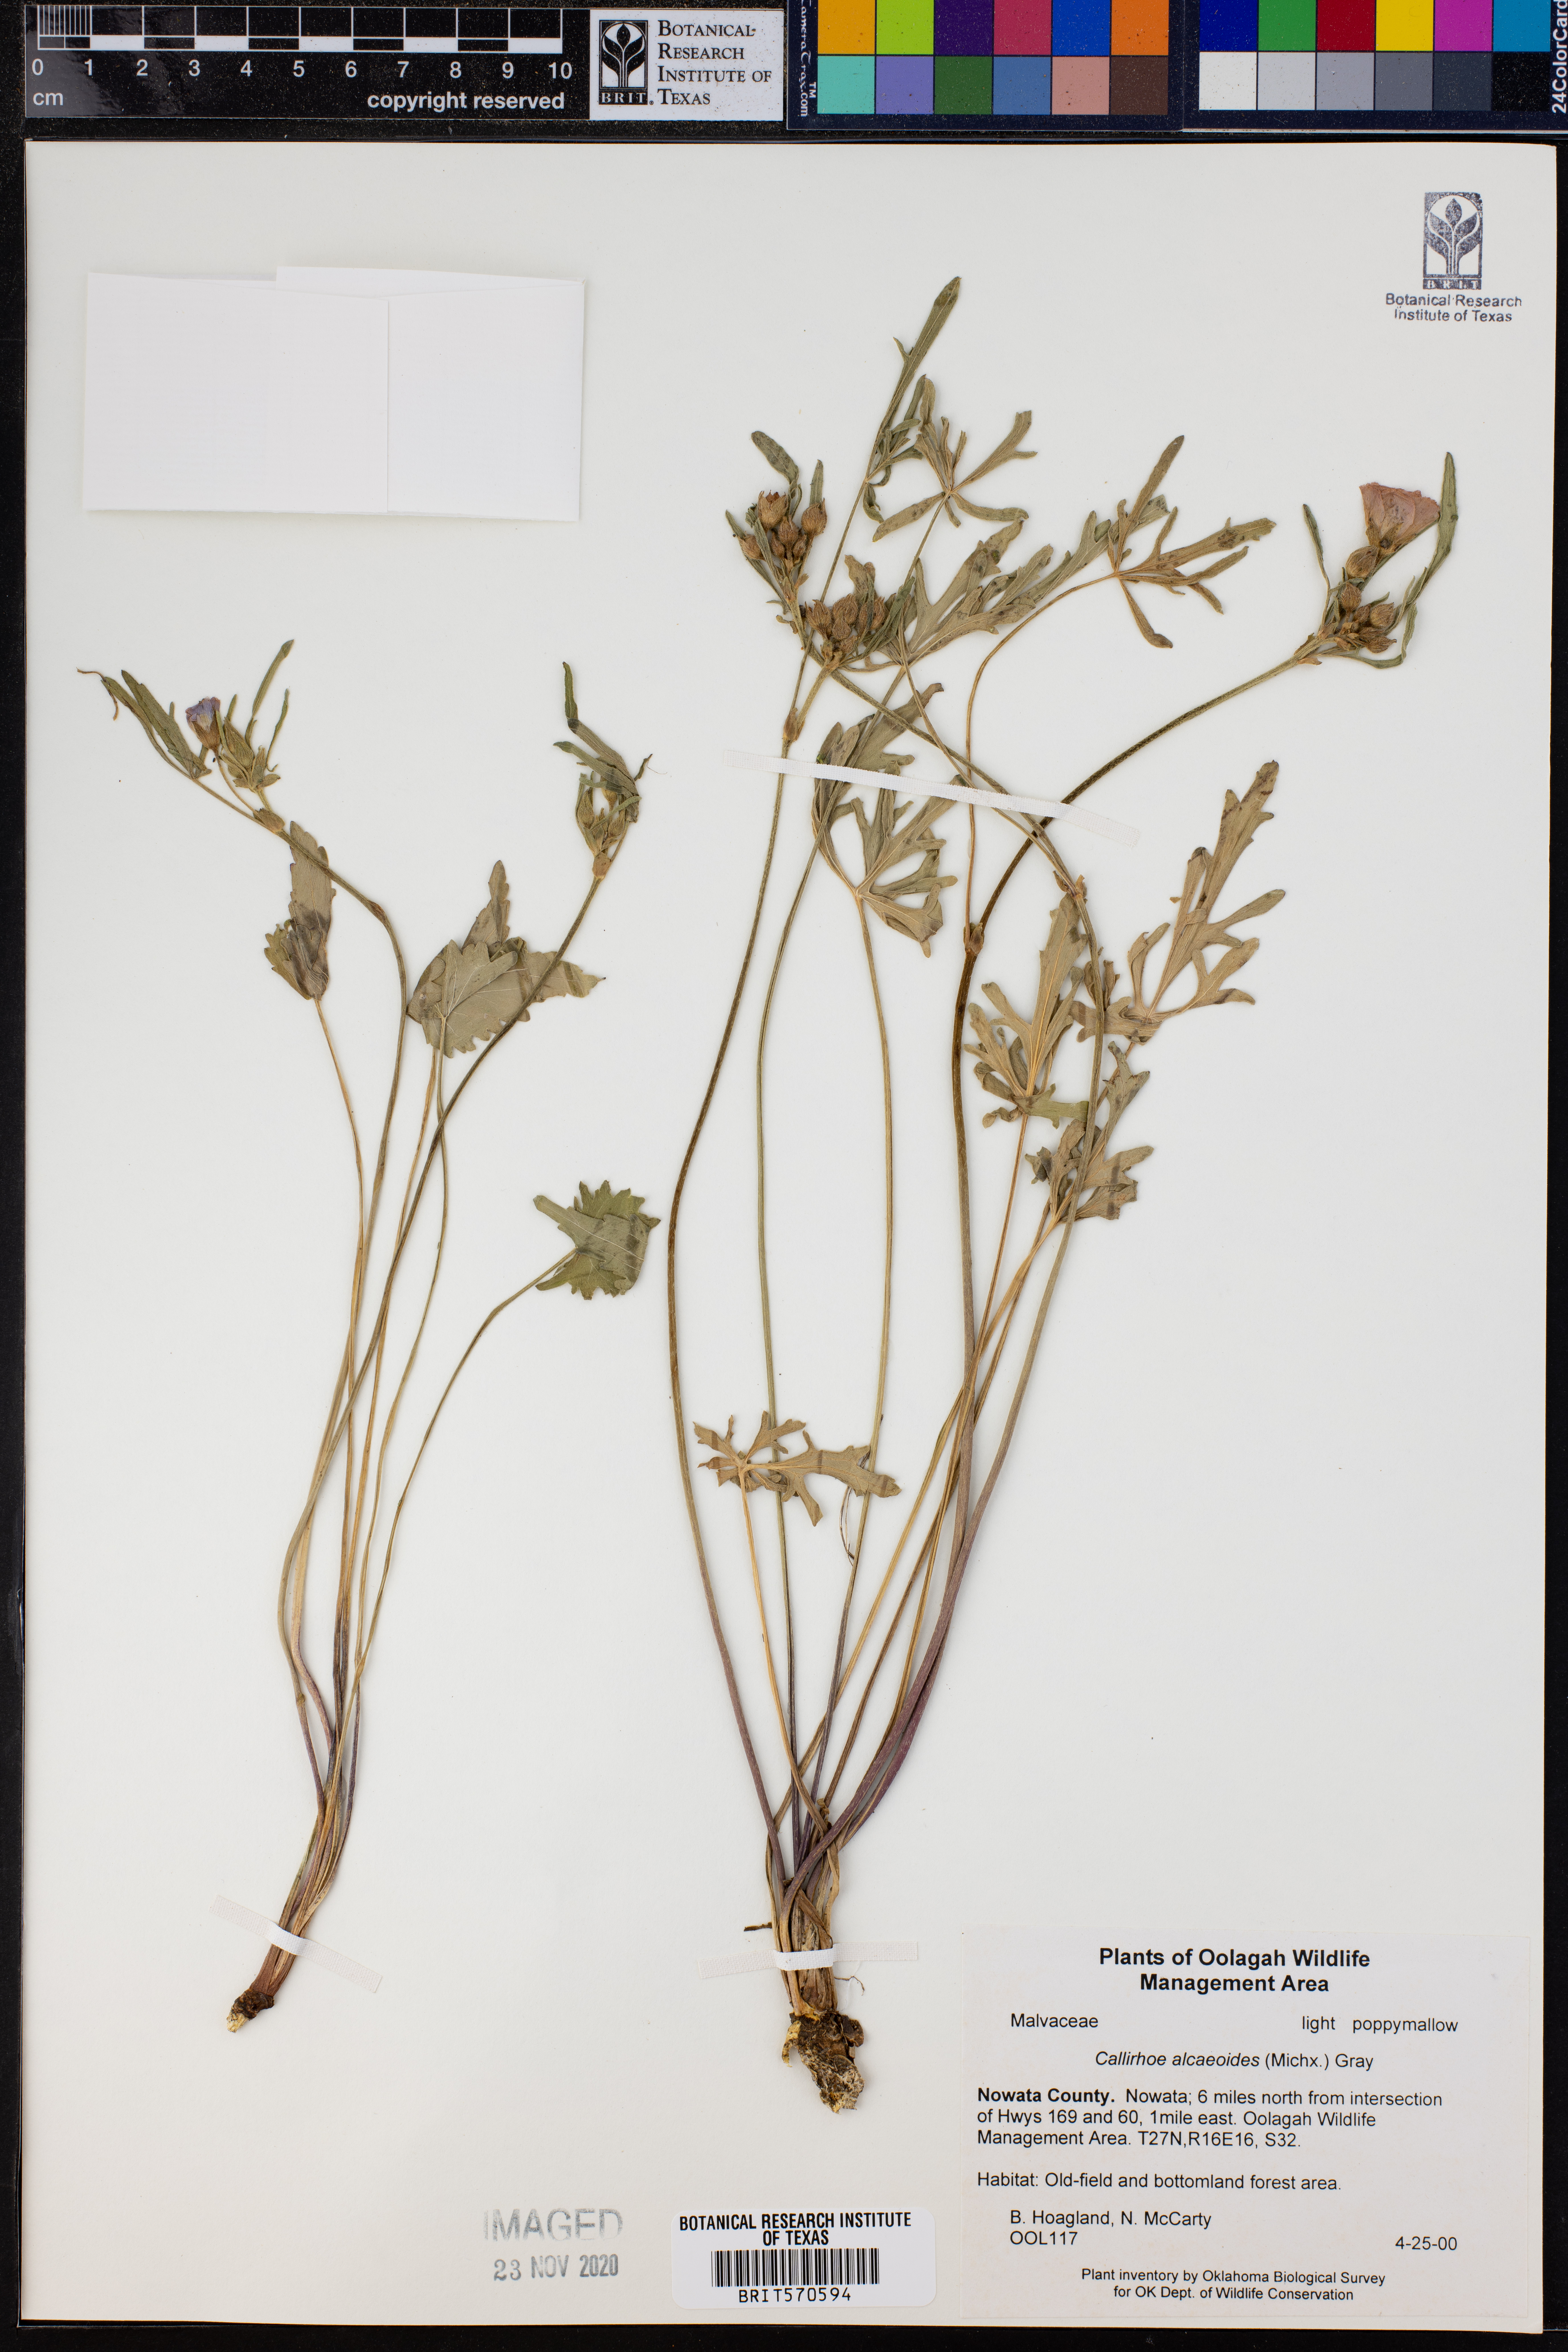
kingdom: Plantae
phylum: Tracheophyta
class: Magnoliopsida
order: Malvales
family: Malvaceae
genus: Callirhoe
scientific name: Callirhoe alcaeoides
